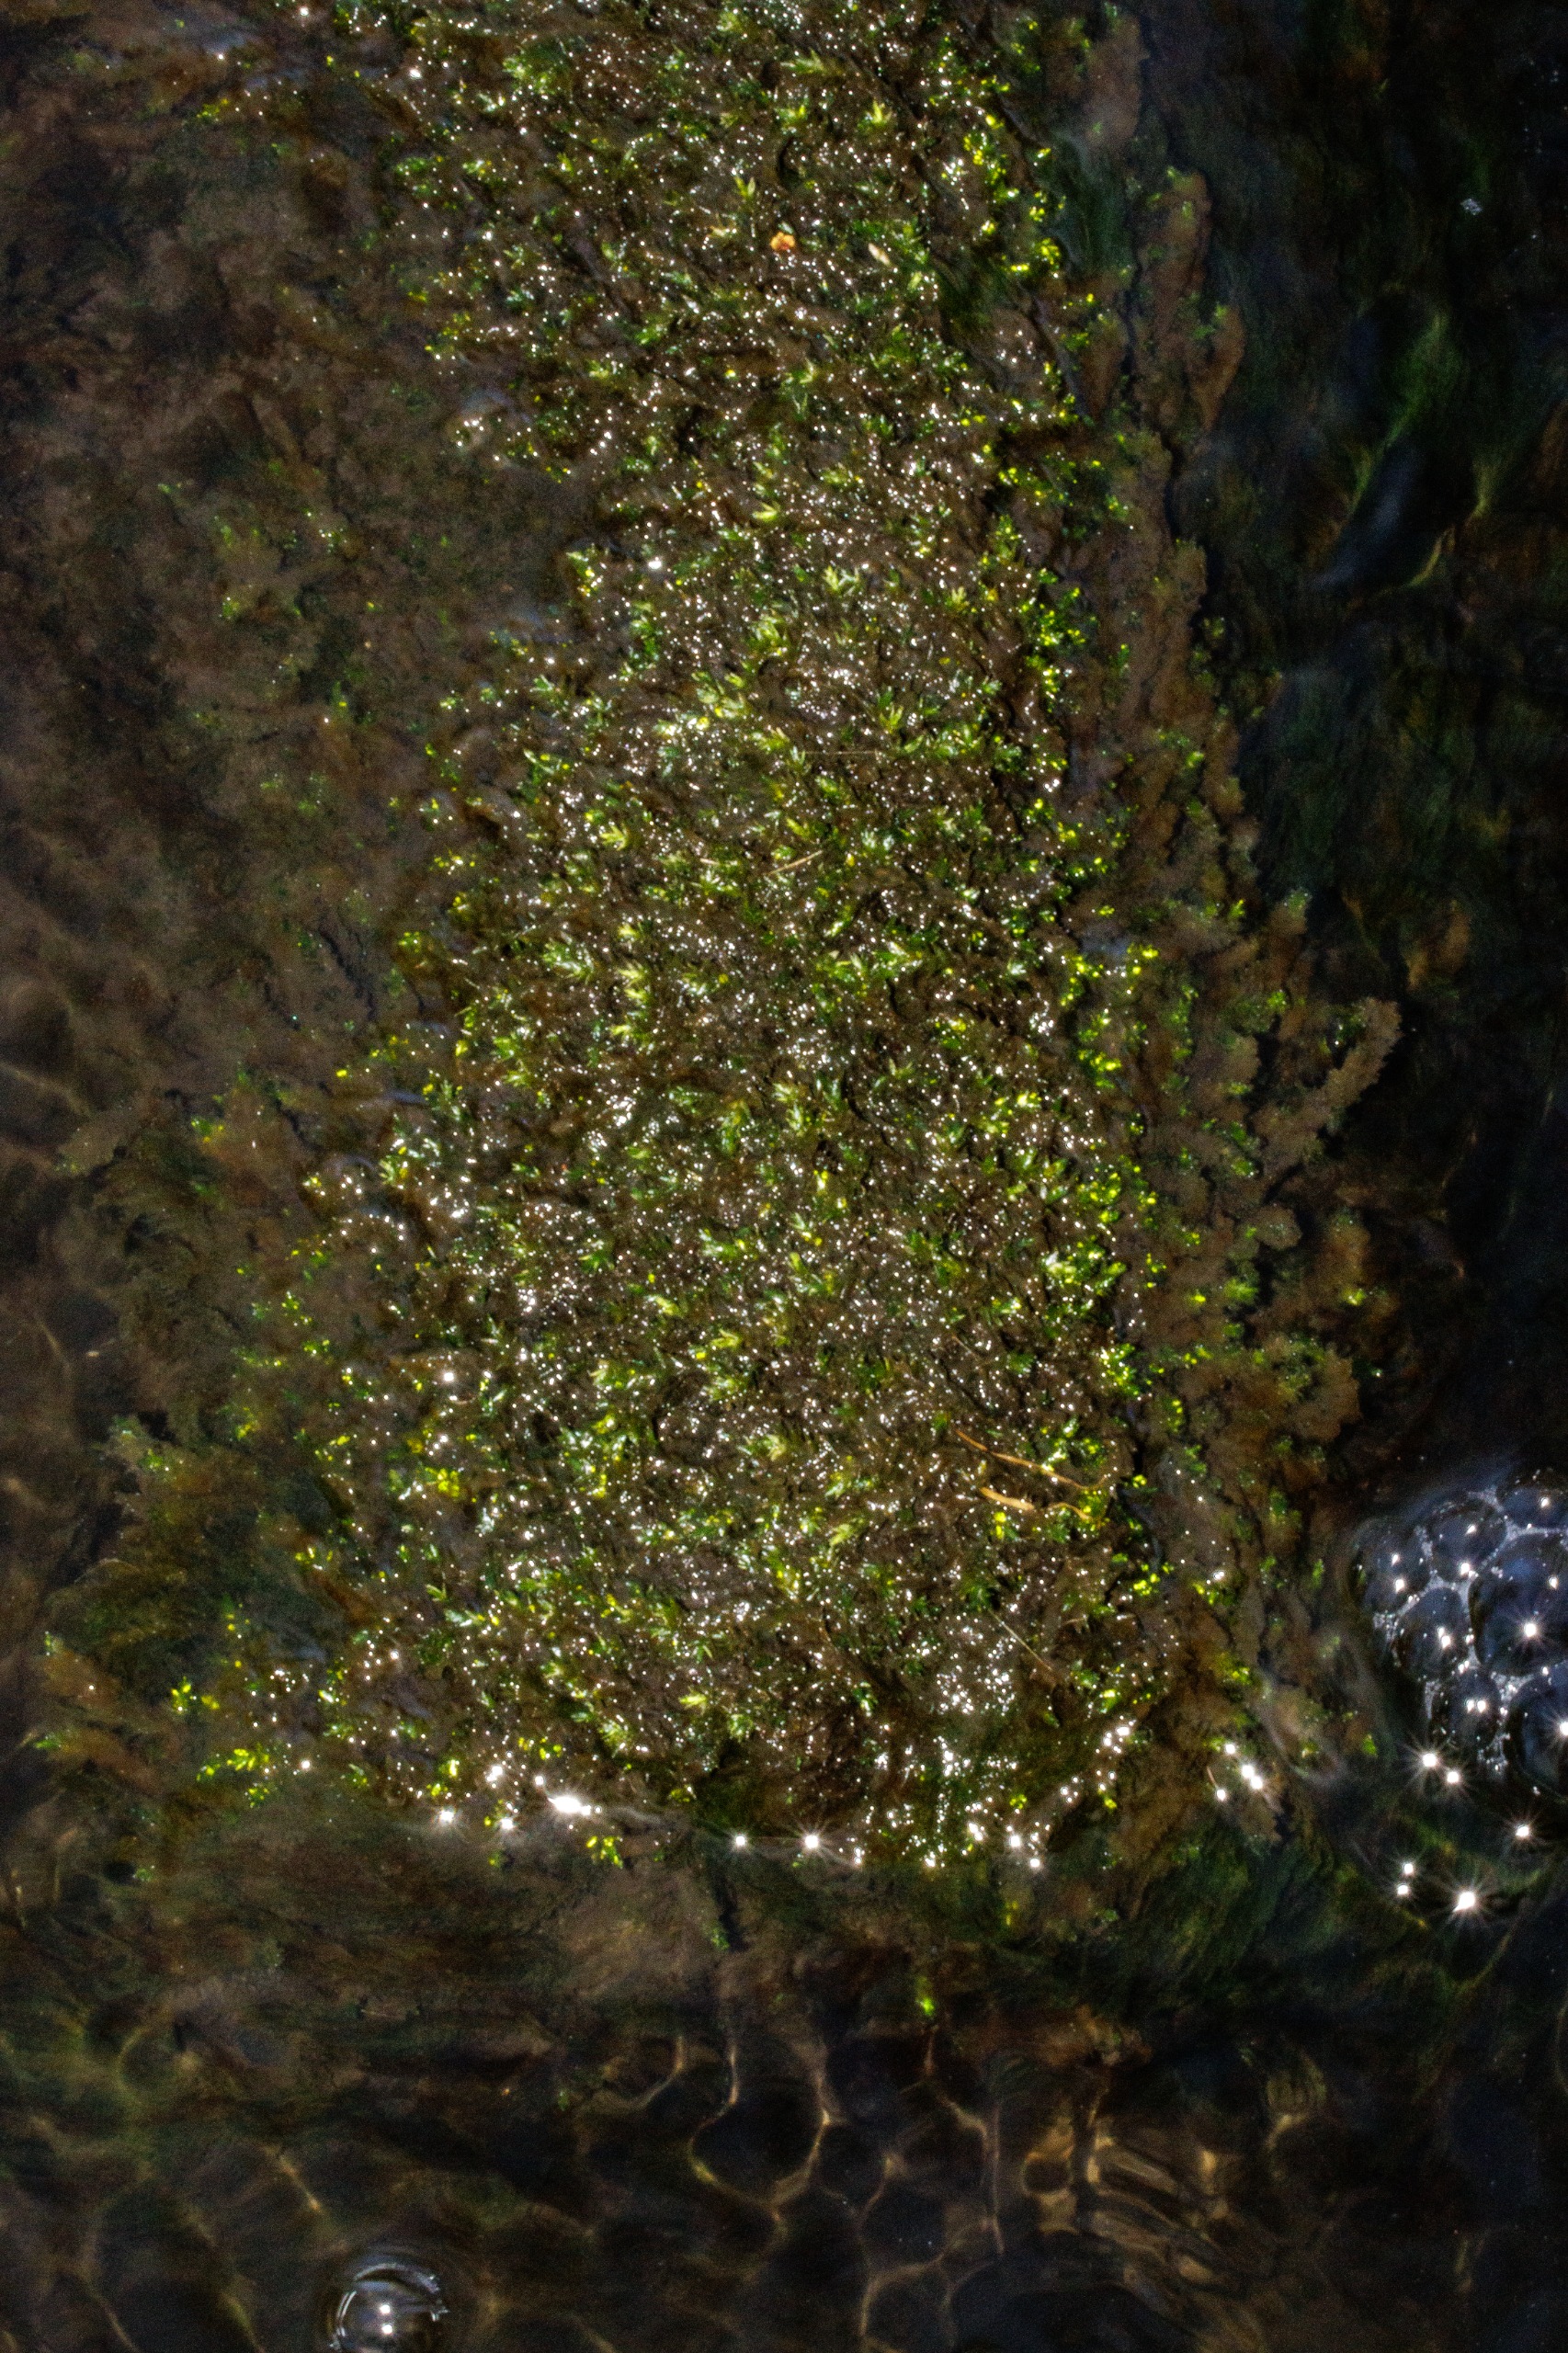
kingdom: Plantae
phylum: Bryophyta
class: Bryopsida
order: Hypnales
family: Brachytheciaceae
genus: Rhynchostegium
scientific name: Rhynchostegium riparioides
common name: Robust strømmos
